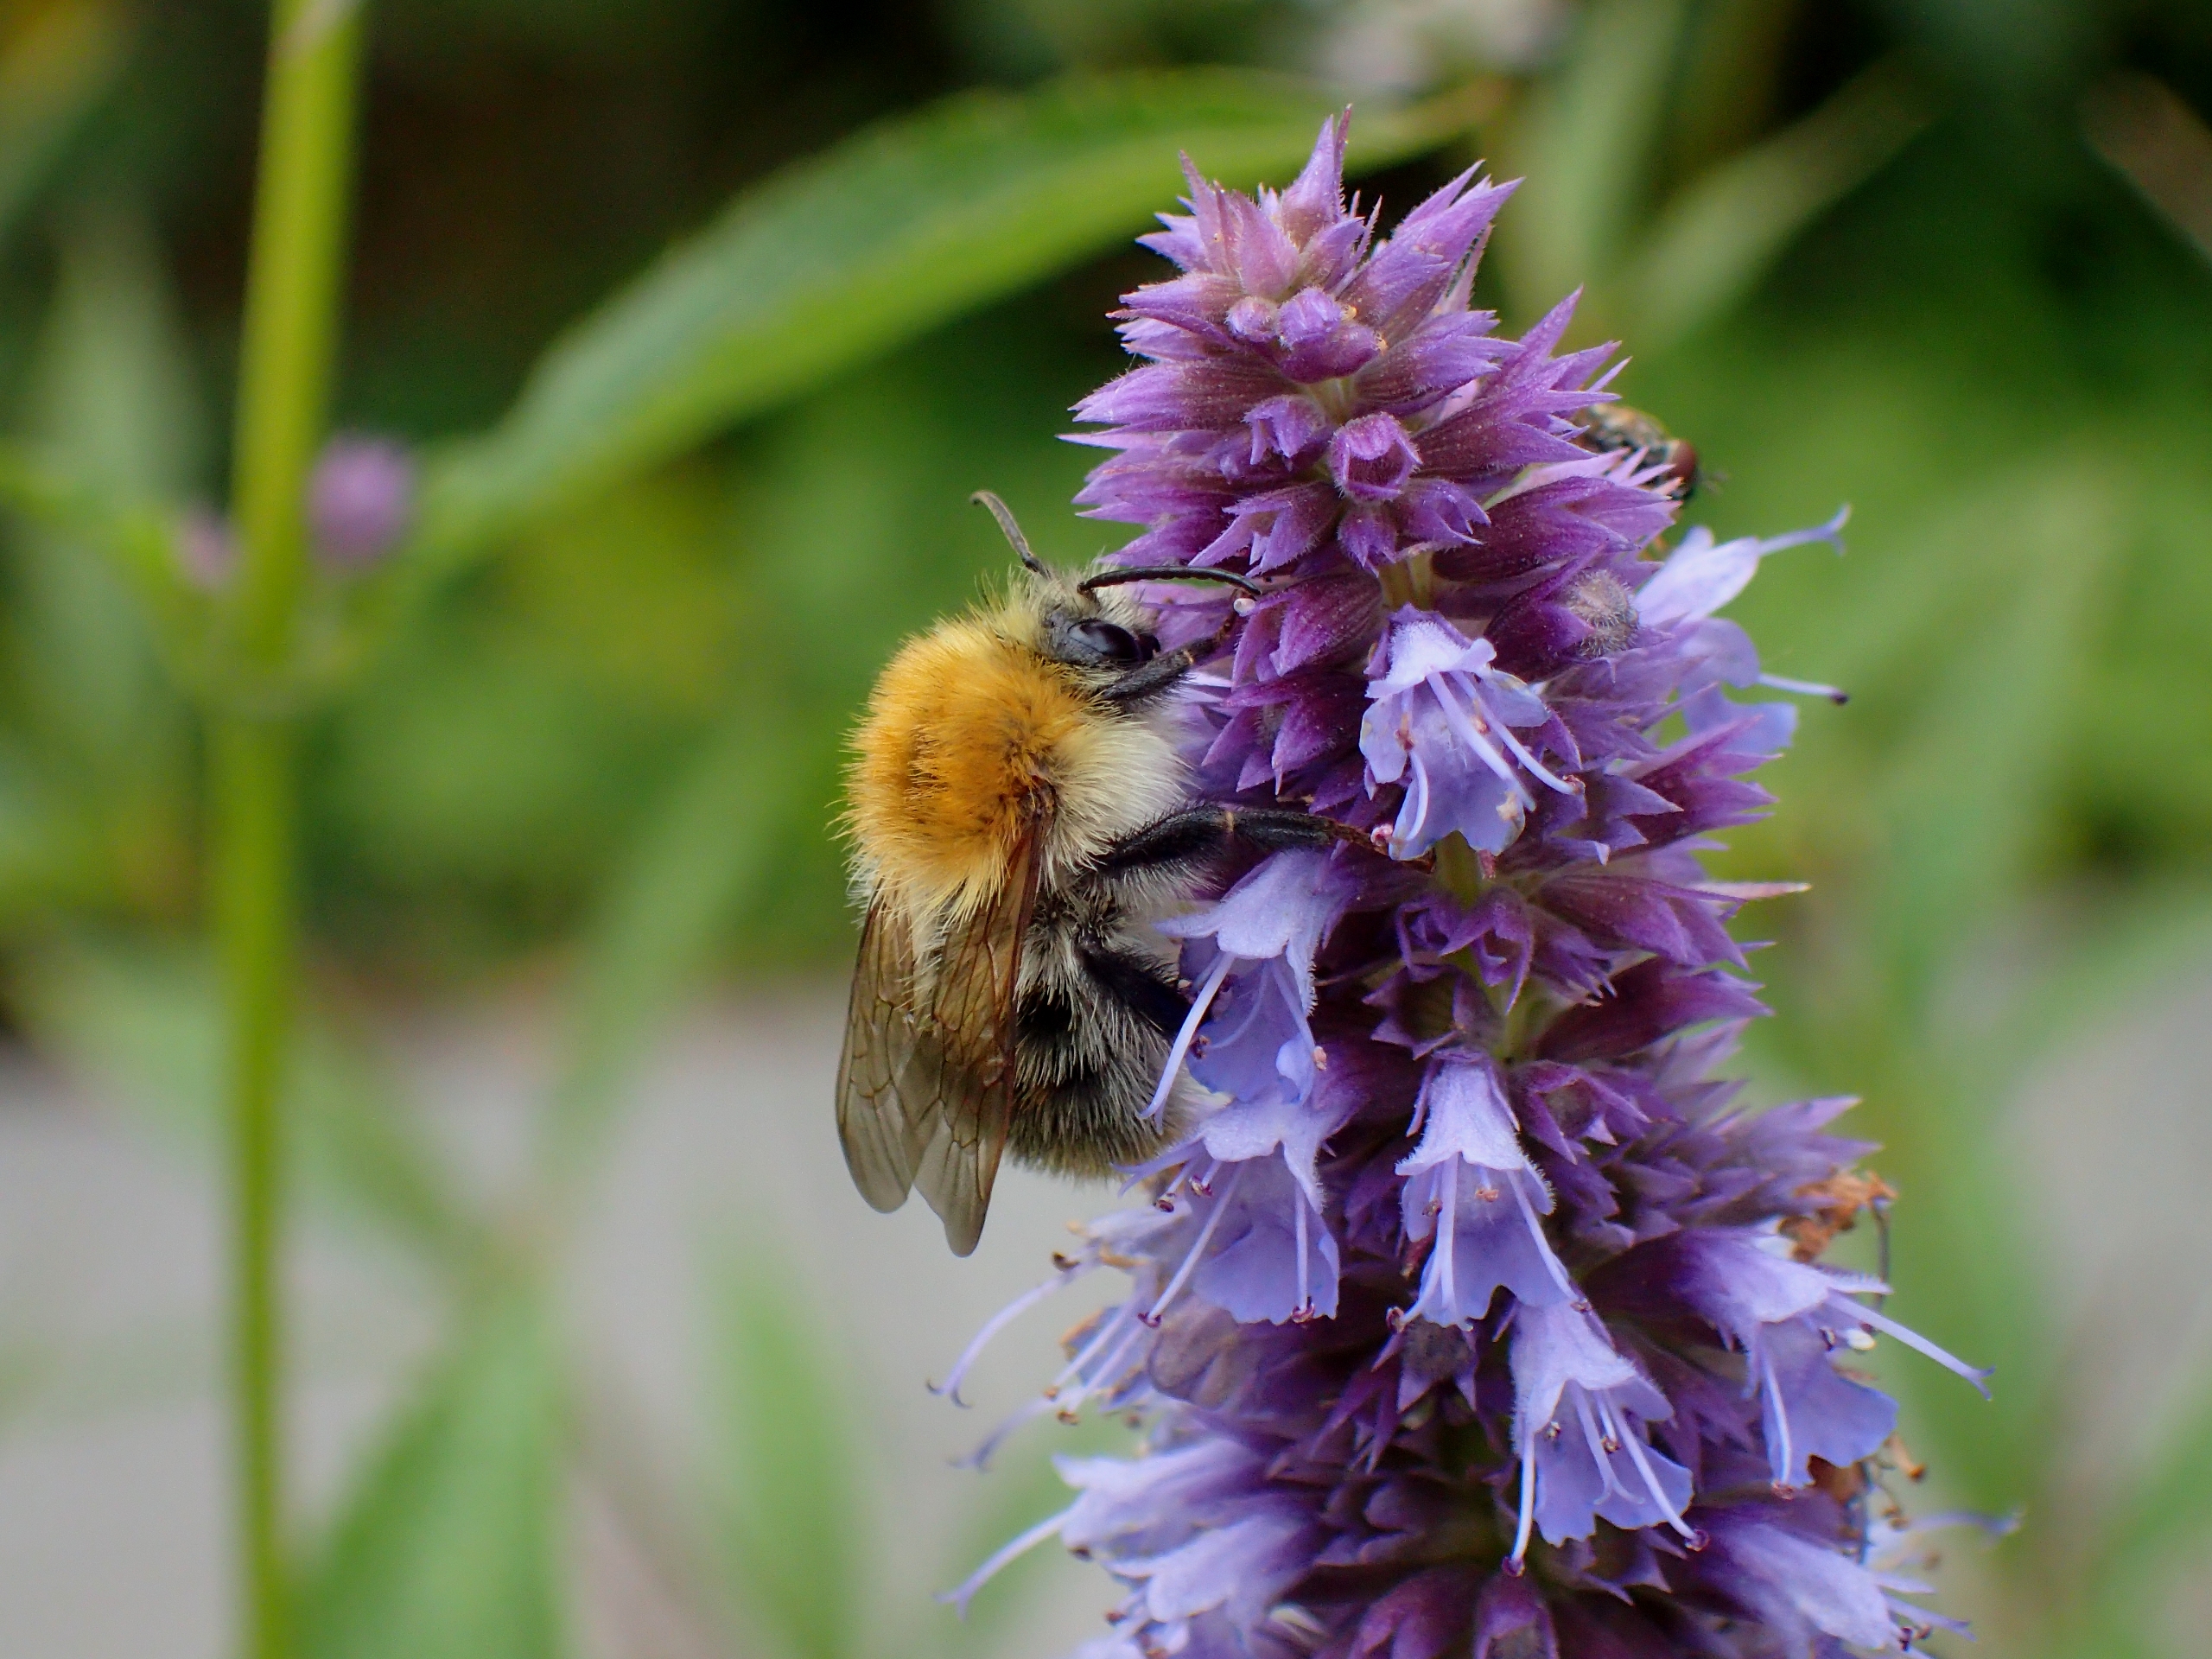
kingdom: Animalia
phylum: Arthropoda
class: Insecta
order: Hymenoptera
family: Apidae
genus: Bombus
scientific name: Bombus pascuorum
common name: Agerhumle
